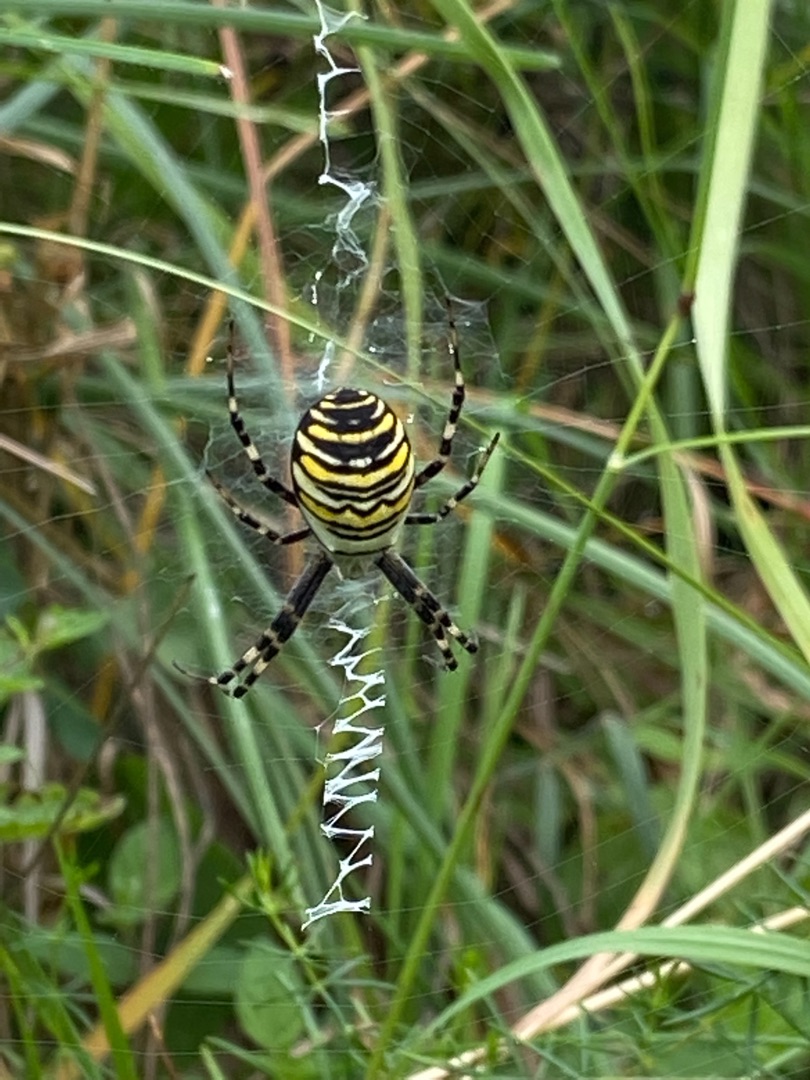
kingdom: Animalia
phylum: Arthropoda
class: Arachnida
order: Araneae
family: Araneidae
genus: Argiope
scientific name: Argiope bruennichi
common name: Hvepseedderkop
